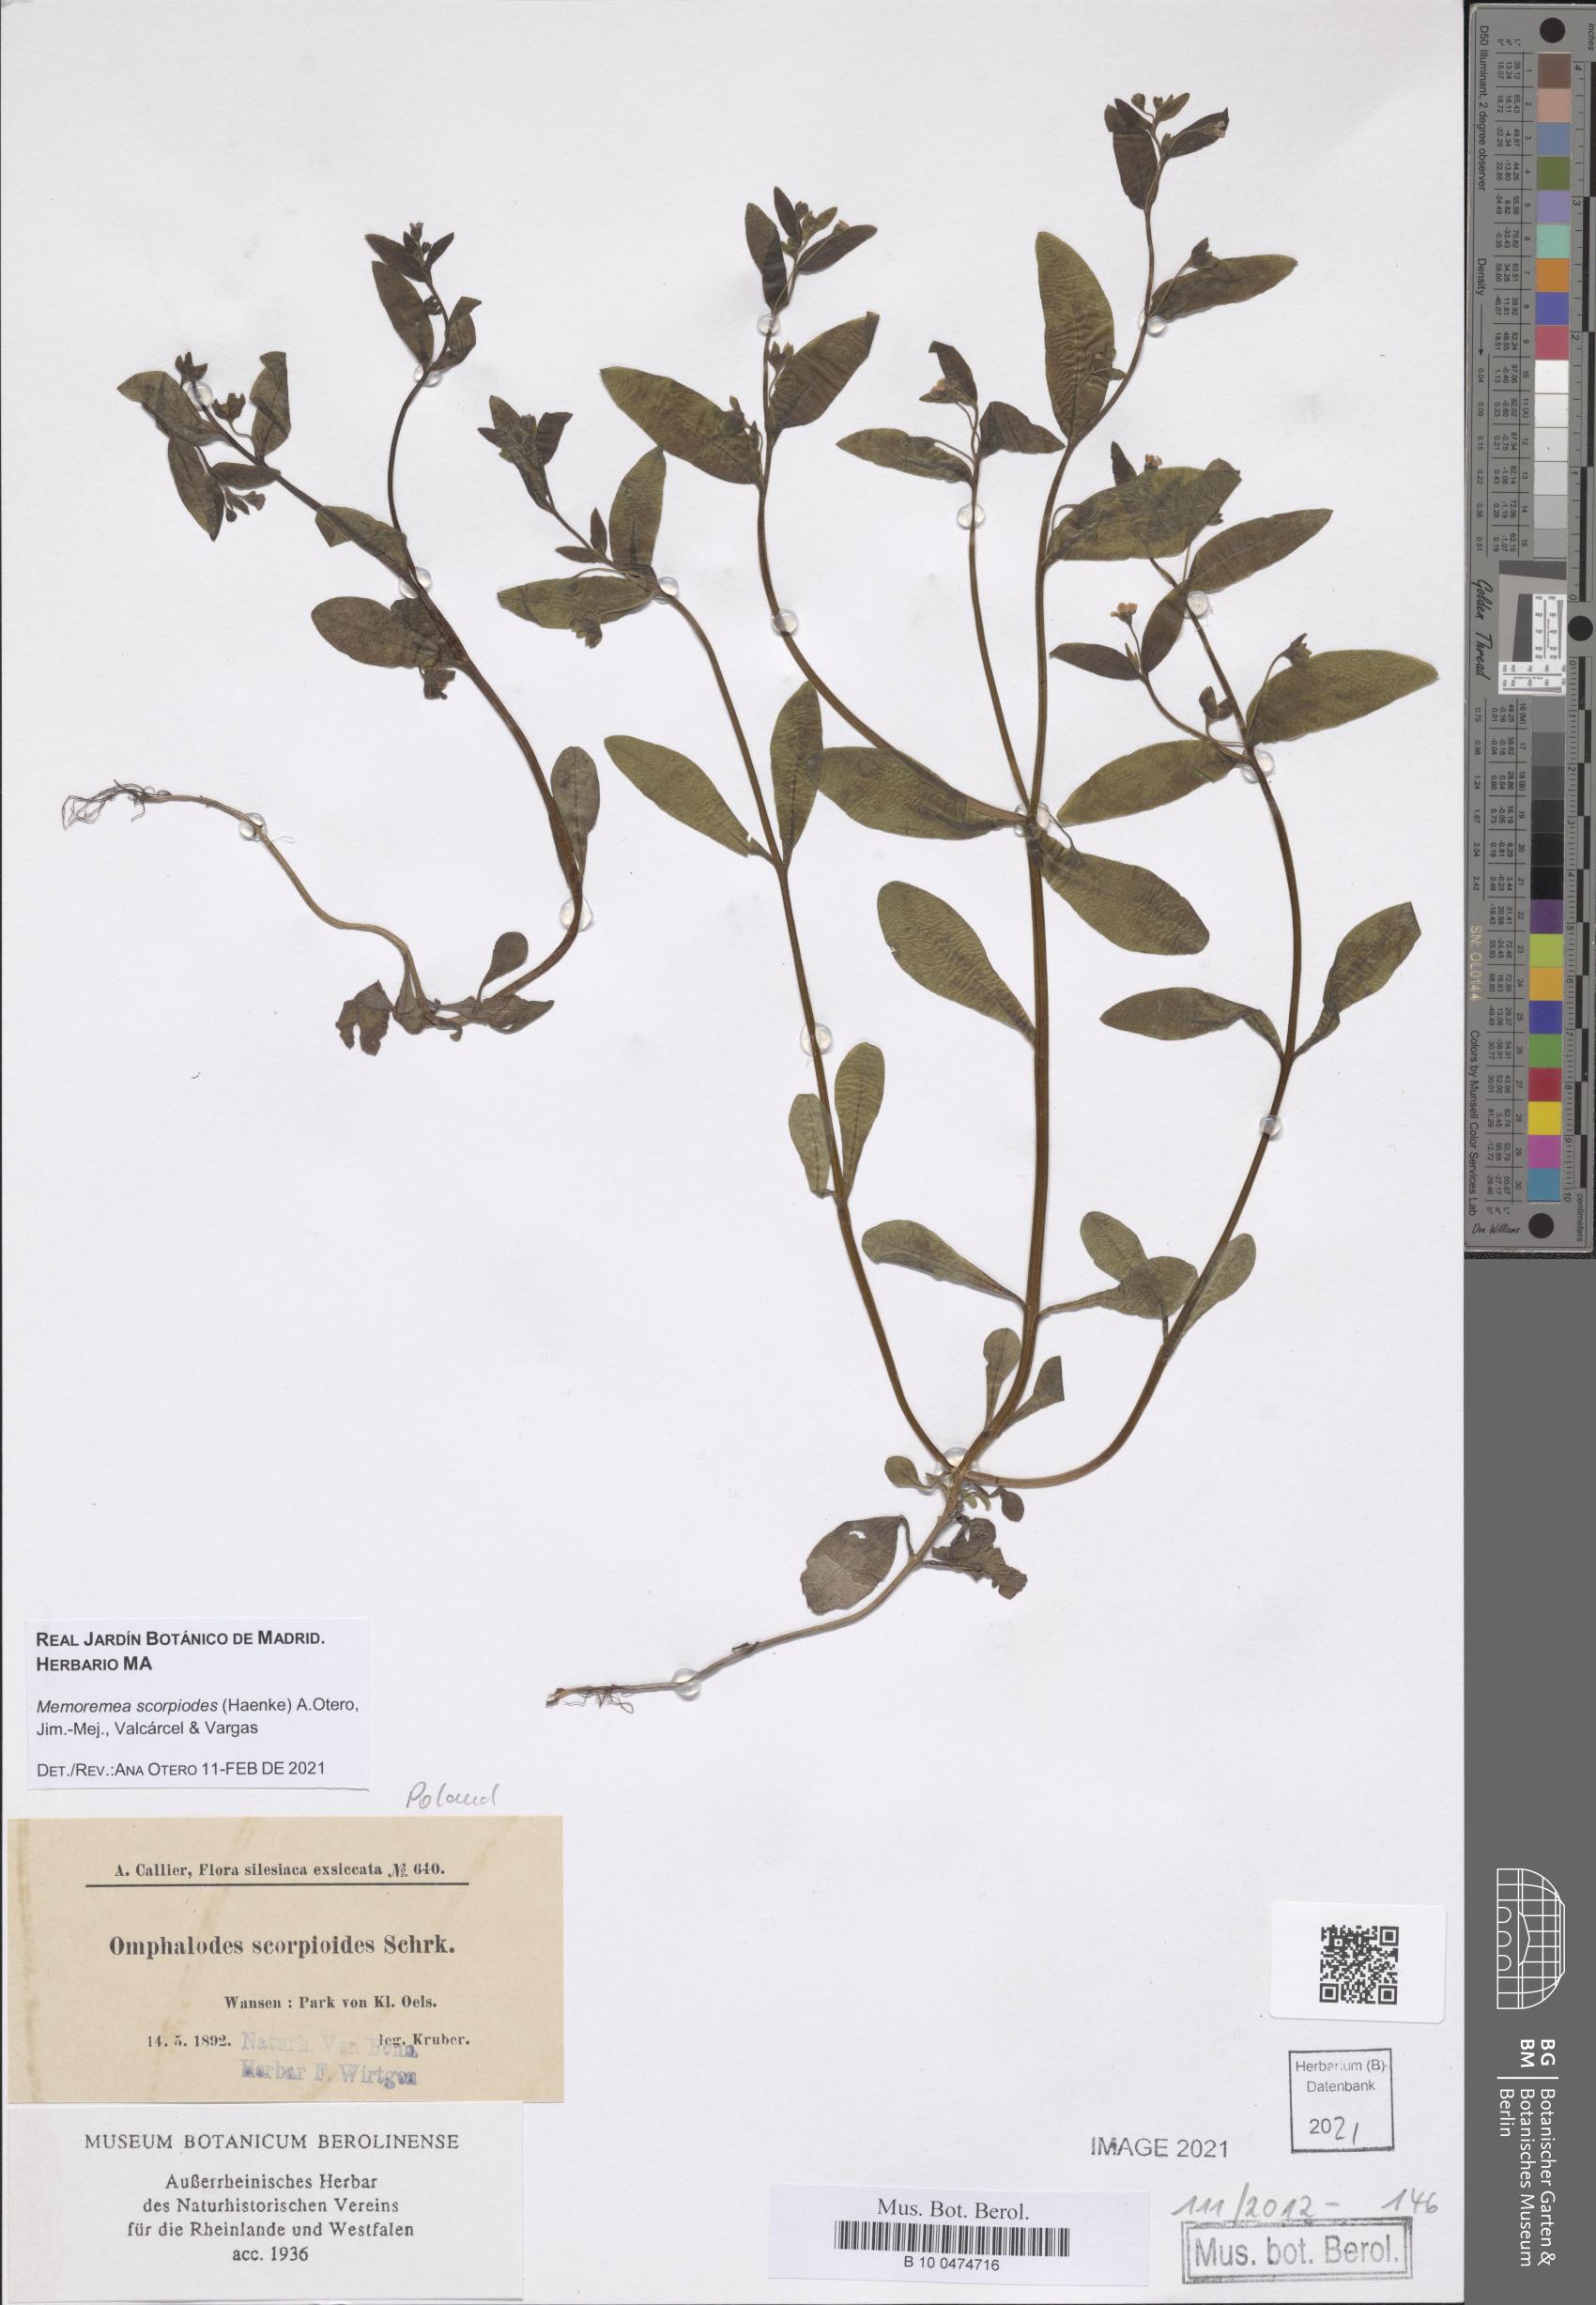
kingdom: Plantae
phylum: Tracheophyta
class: Magnoliopsida
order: Boraginales
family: Boraginaceae
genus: Memoremea
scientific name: Memoremea scorpioides
